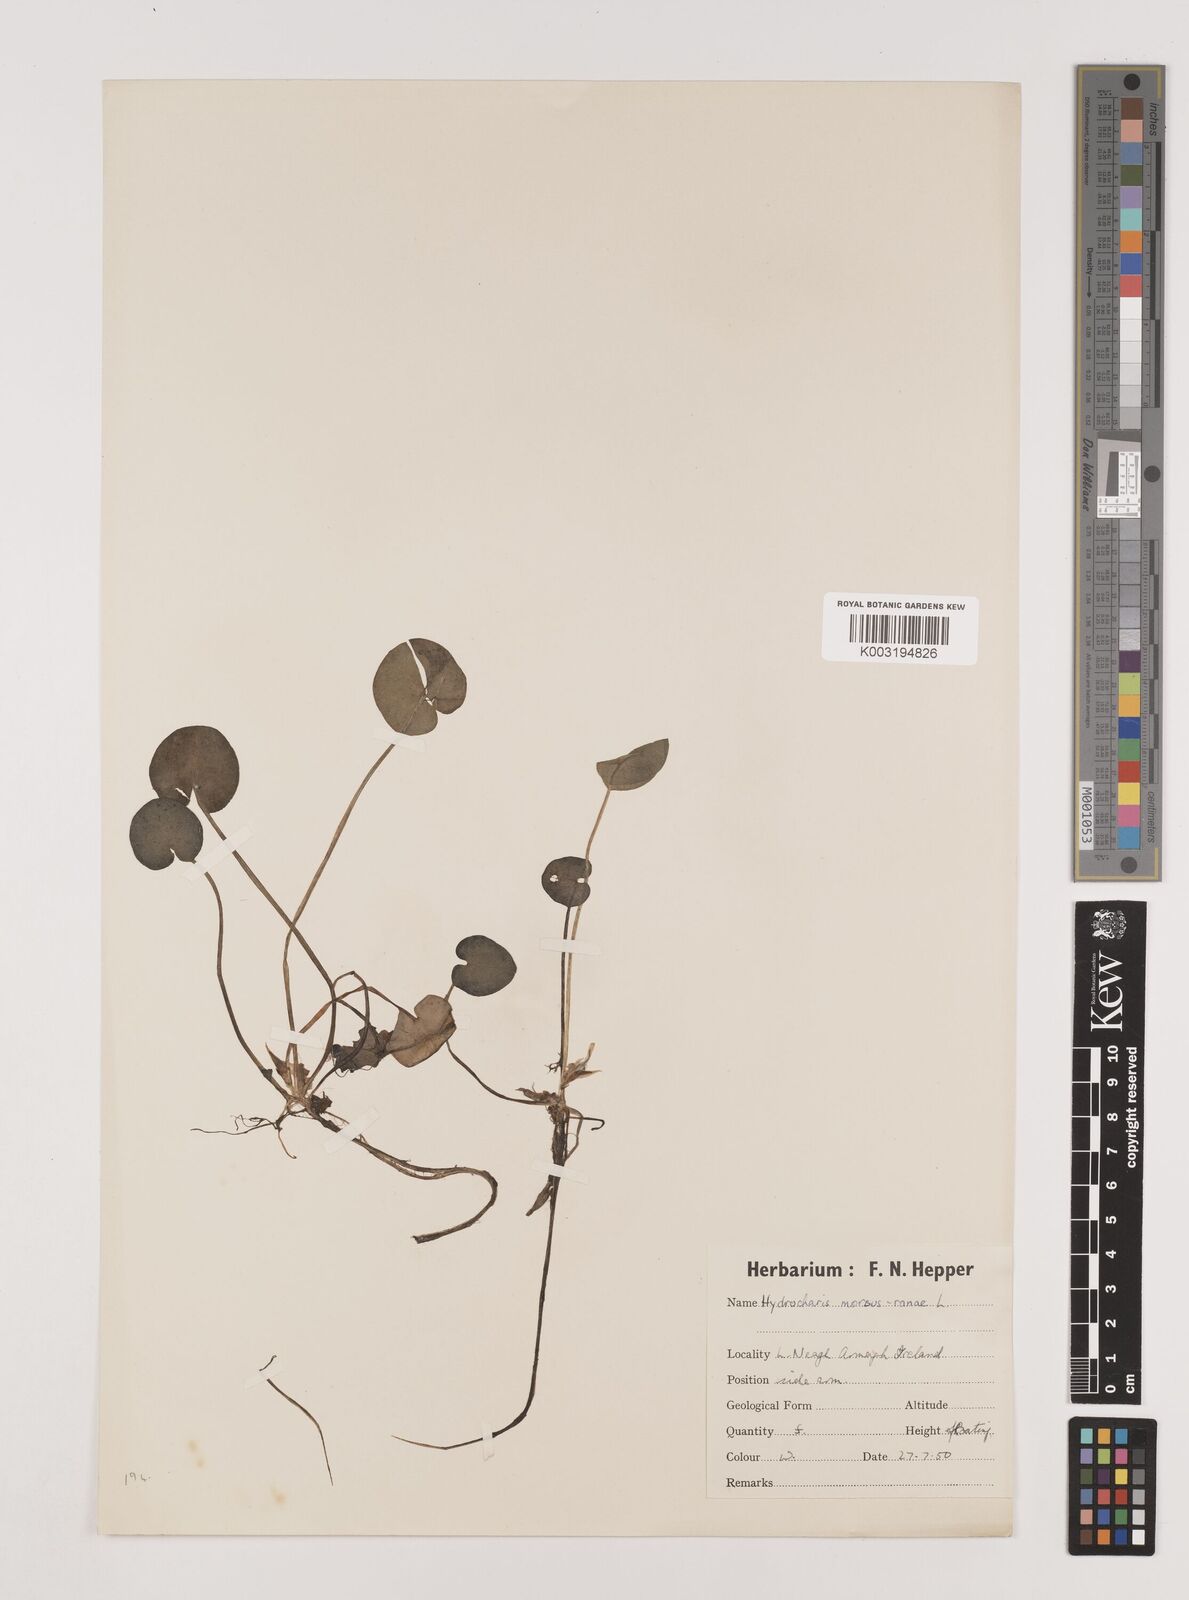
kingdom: Plantae
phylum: Tracheophyta
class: Liliopsida
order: Alismatales
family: Hydrocharitaceae
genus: Hydrocharis
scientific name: Hydrocharis morsus-ranae
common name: Frogbit
